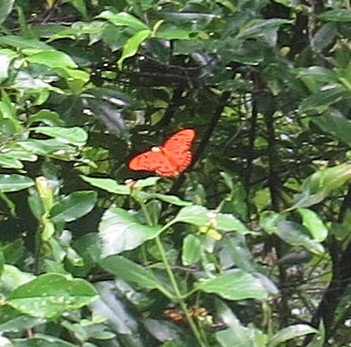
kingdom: Animalia
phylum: Arthropoda
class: Insecta
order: Lepidoptera
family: Nymphalidae
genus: Dione
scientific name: Dione vanillae
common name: Gulf Fritillary
